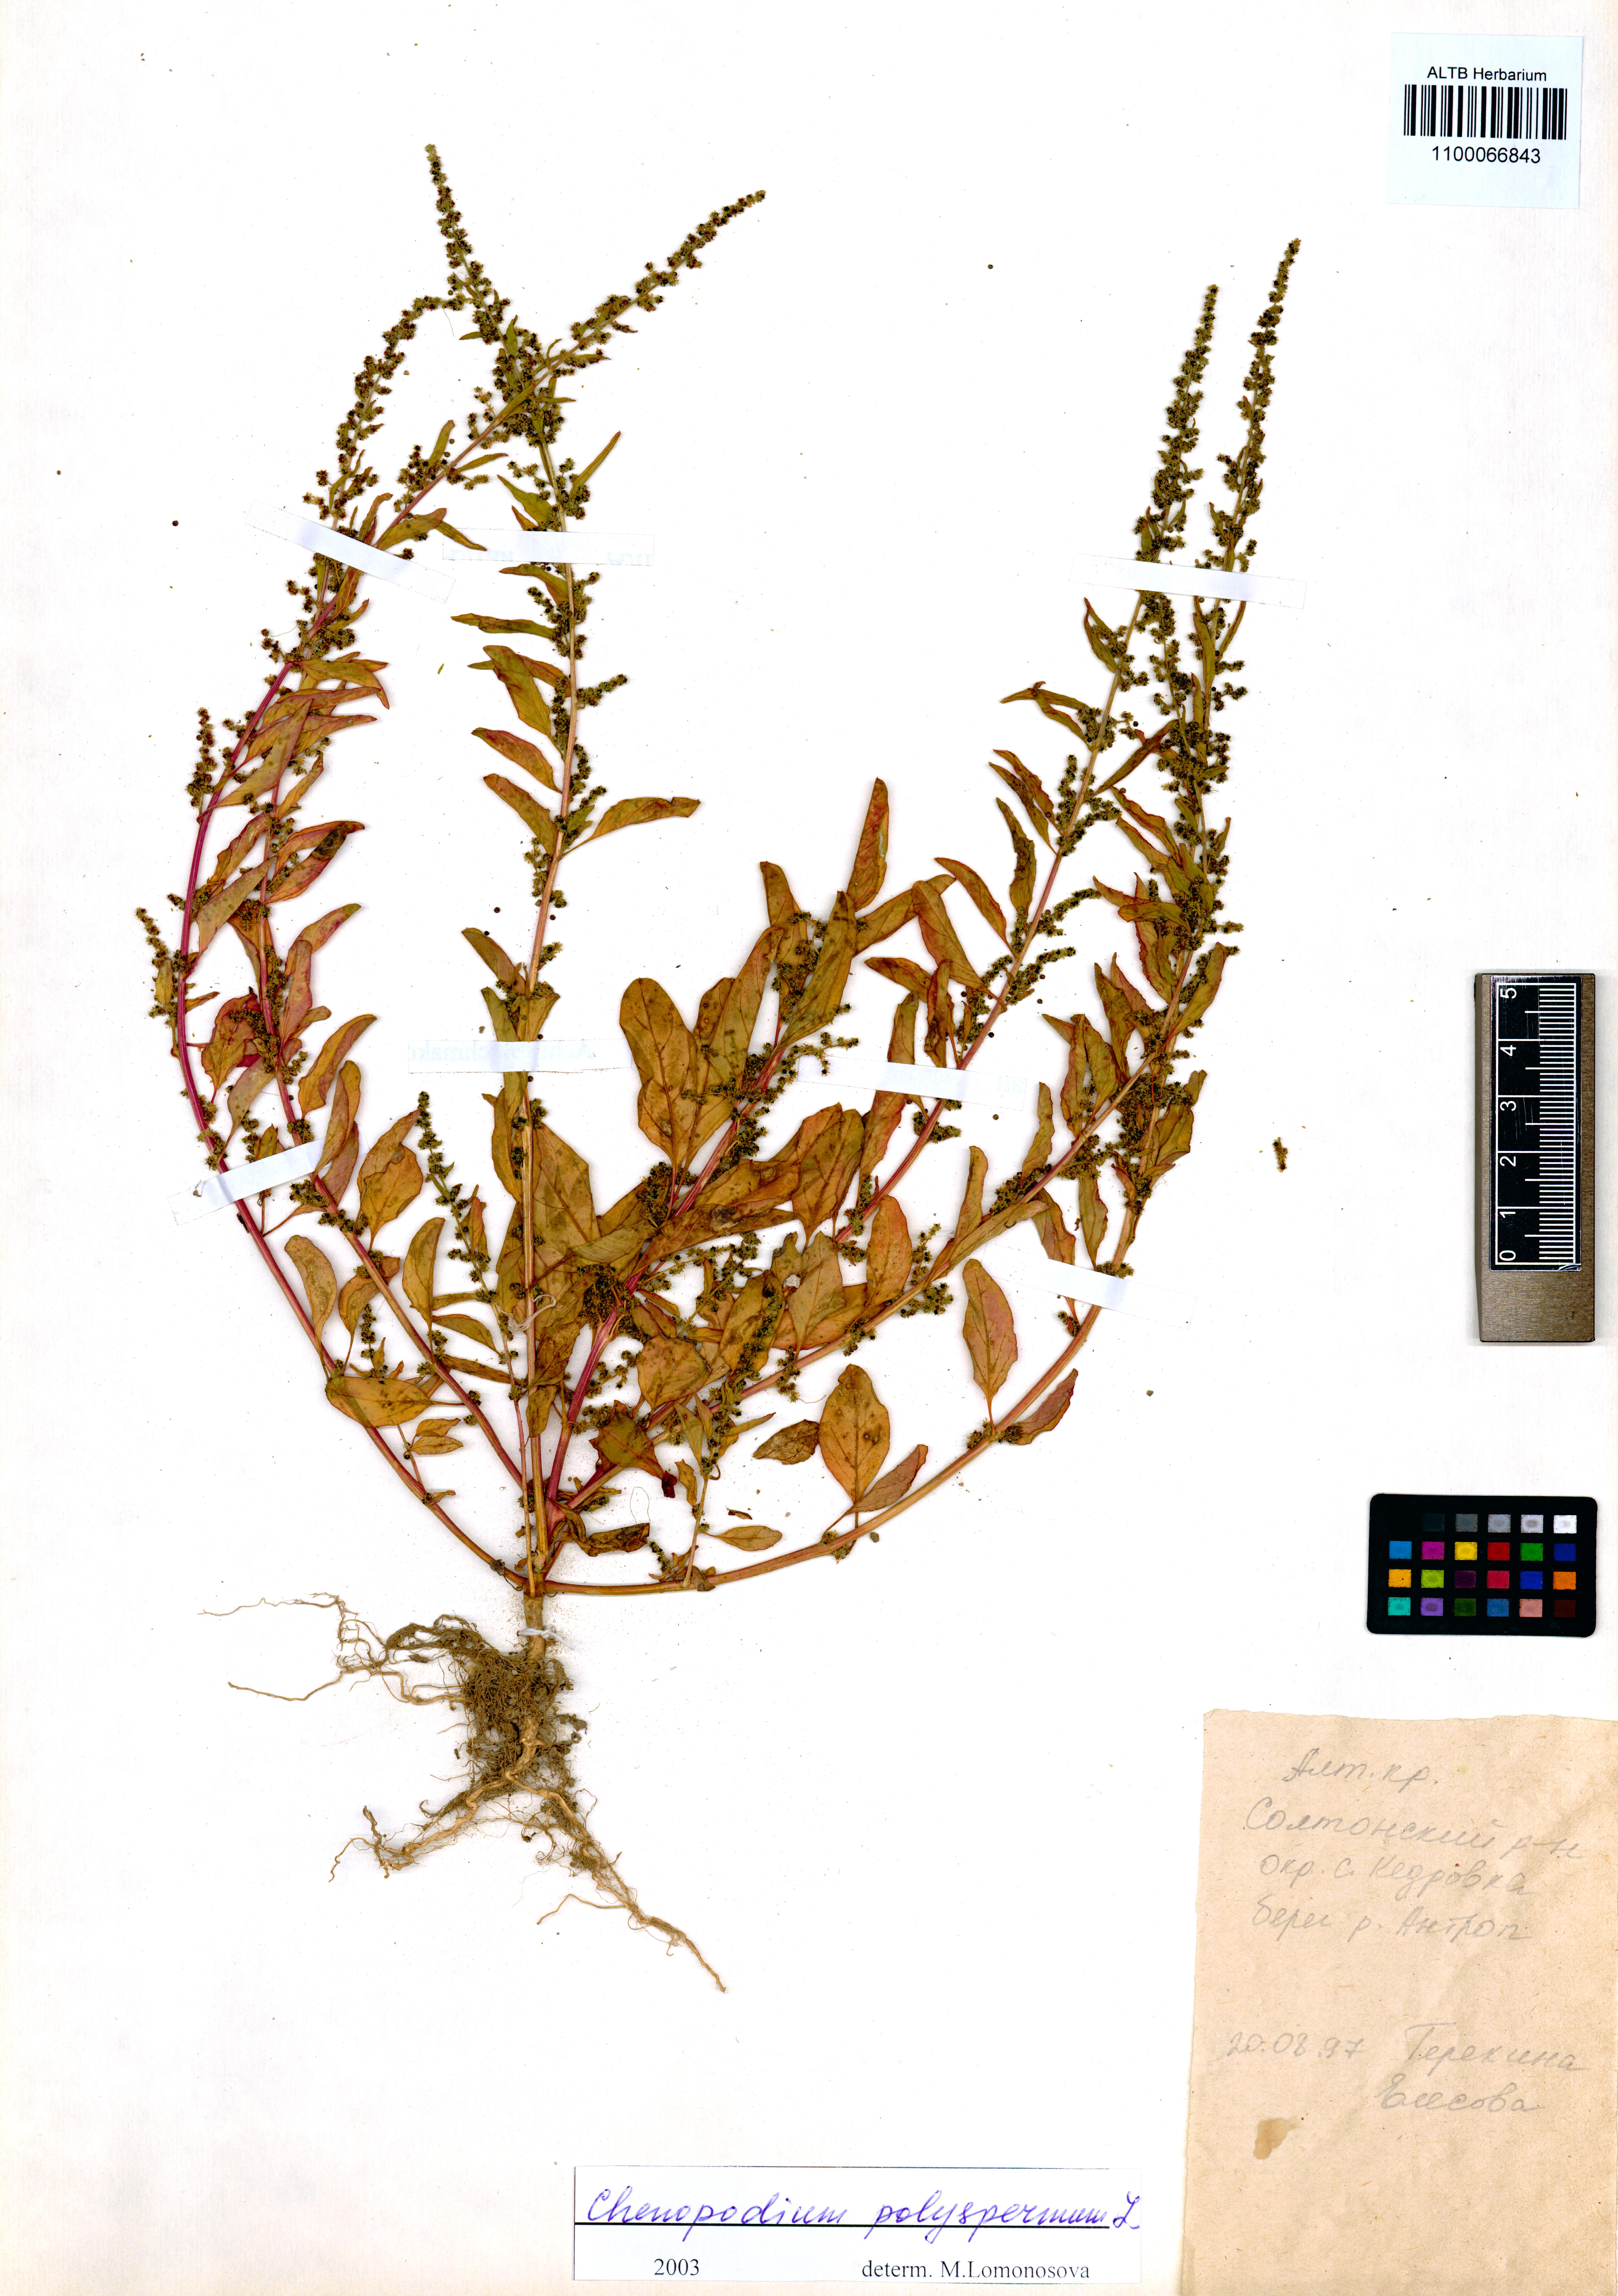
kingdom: Plantae
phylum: Tracheophyta
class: Magnoliopsida
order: Caryophyllales
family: Amaranthaceae
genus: Lipandra
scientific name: Lipandra polysperma
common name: Many-seed goosefoot
